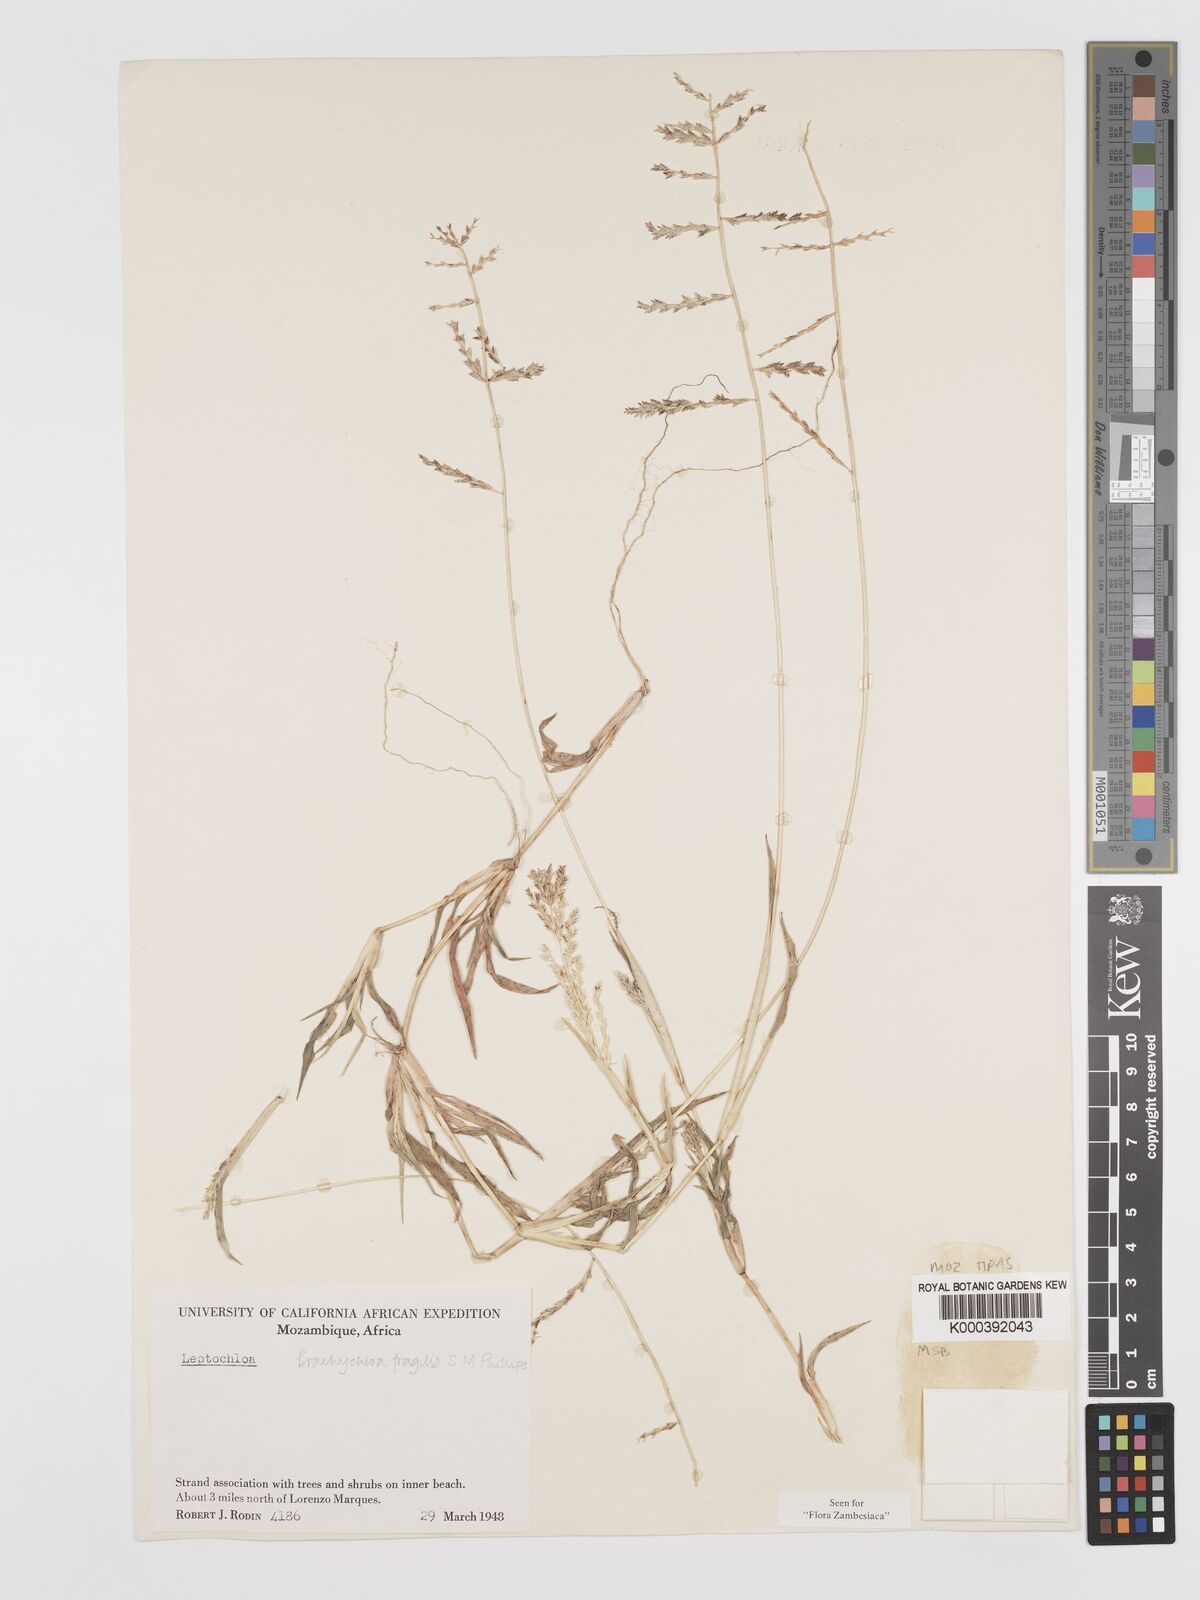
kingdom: Plantae
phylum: Tracheophyta
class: Liliopsida
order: Poales
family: Poaceae
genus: Brachychloa
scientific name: Brachychloa fragilis
